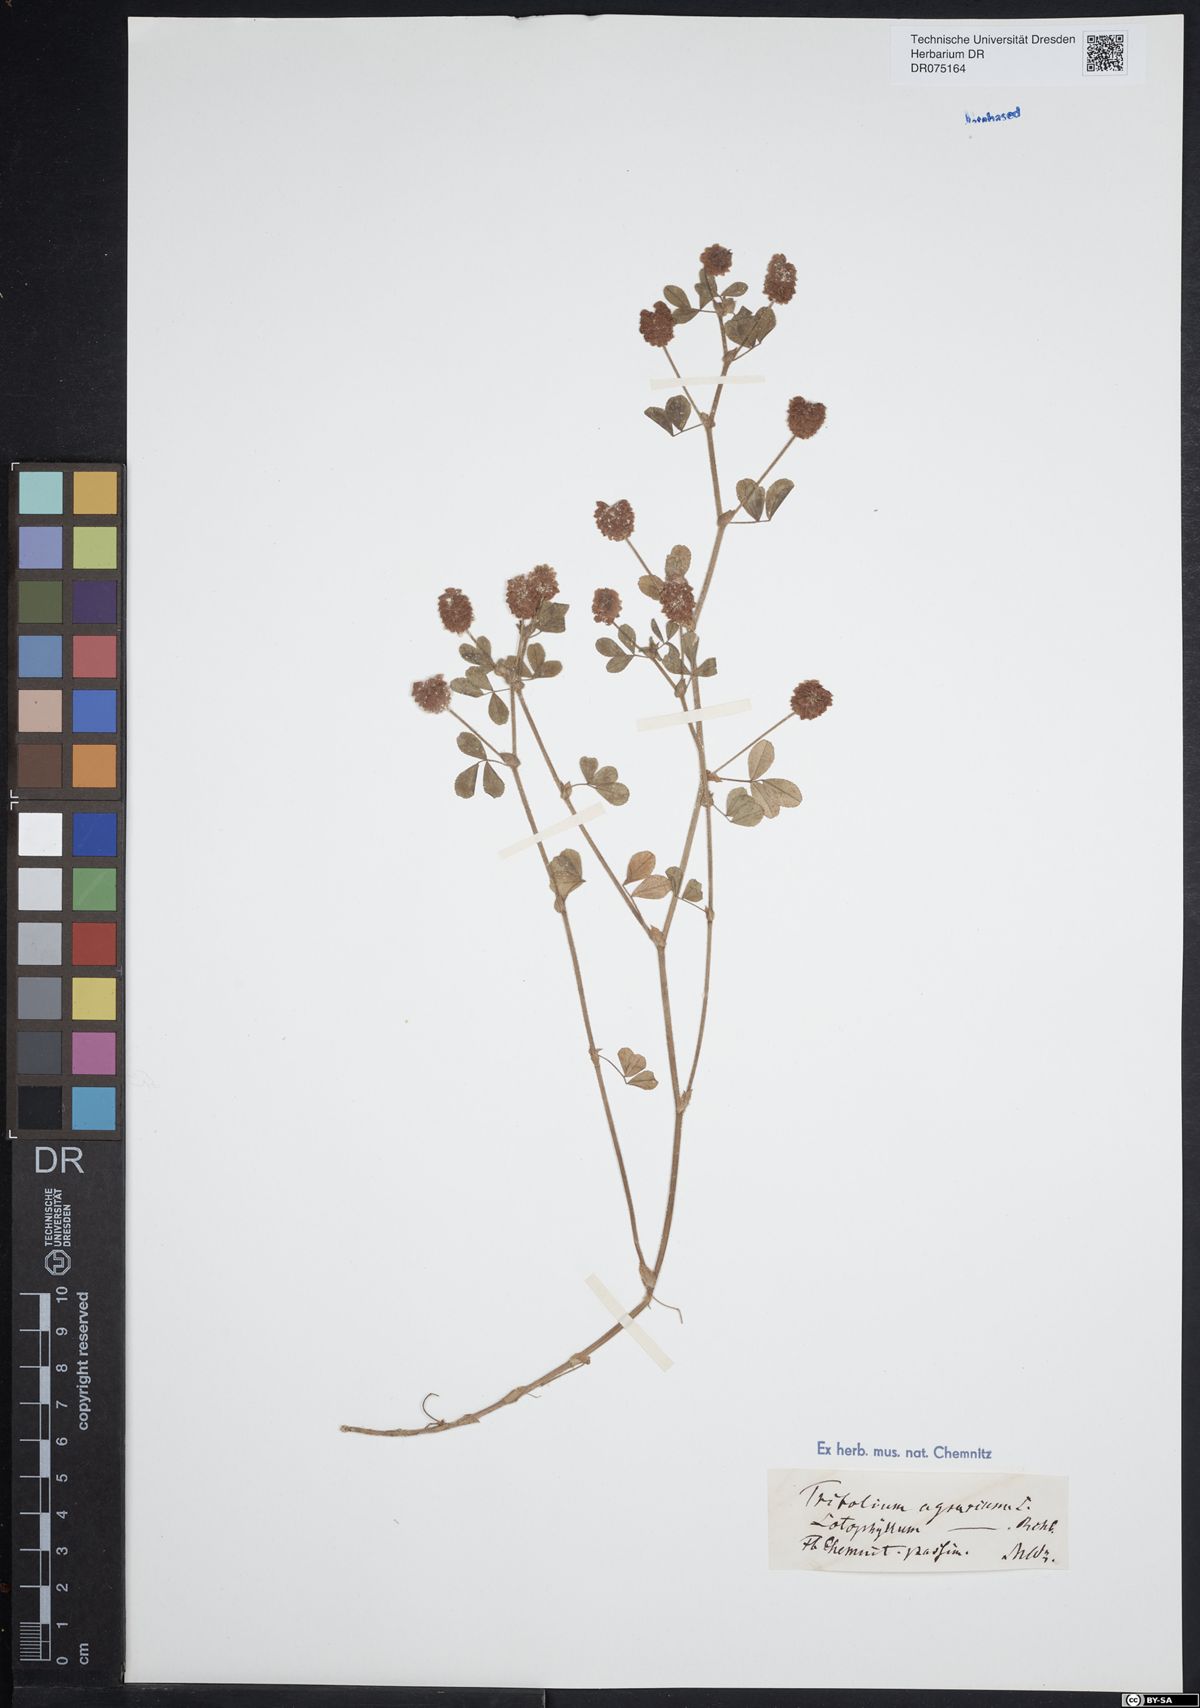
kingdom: Plantae
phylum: Tracheophyta
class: Magnoliopsida
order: Fabales
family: Fabaceae
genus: Trifolium
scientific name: Trifolium campestre
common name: Field clover
